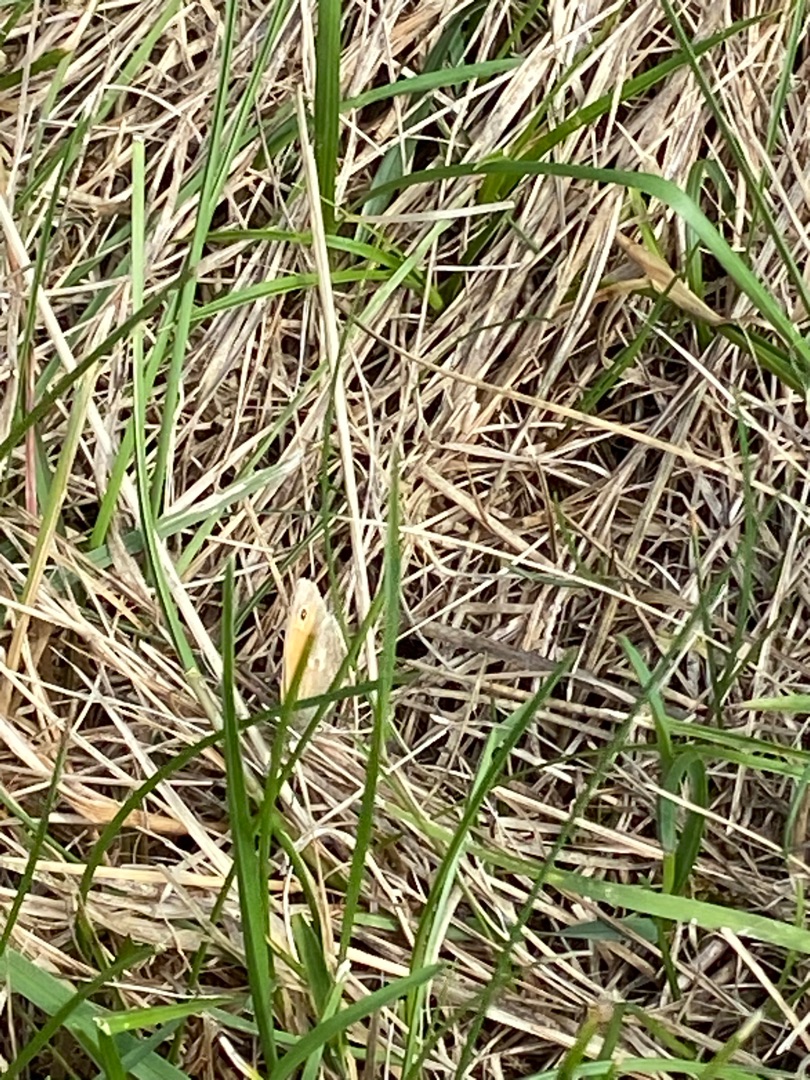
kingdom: Animalia
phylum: Arthropoda
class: Insecta
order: Lepidoptera
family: Nymphalidae
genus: Coenonympha
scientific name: Coenonympha pamphilus
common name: Okkergul randøje
